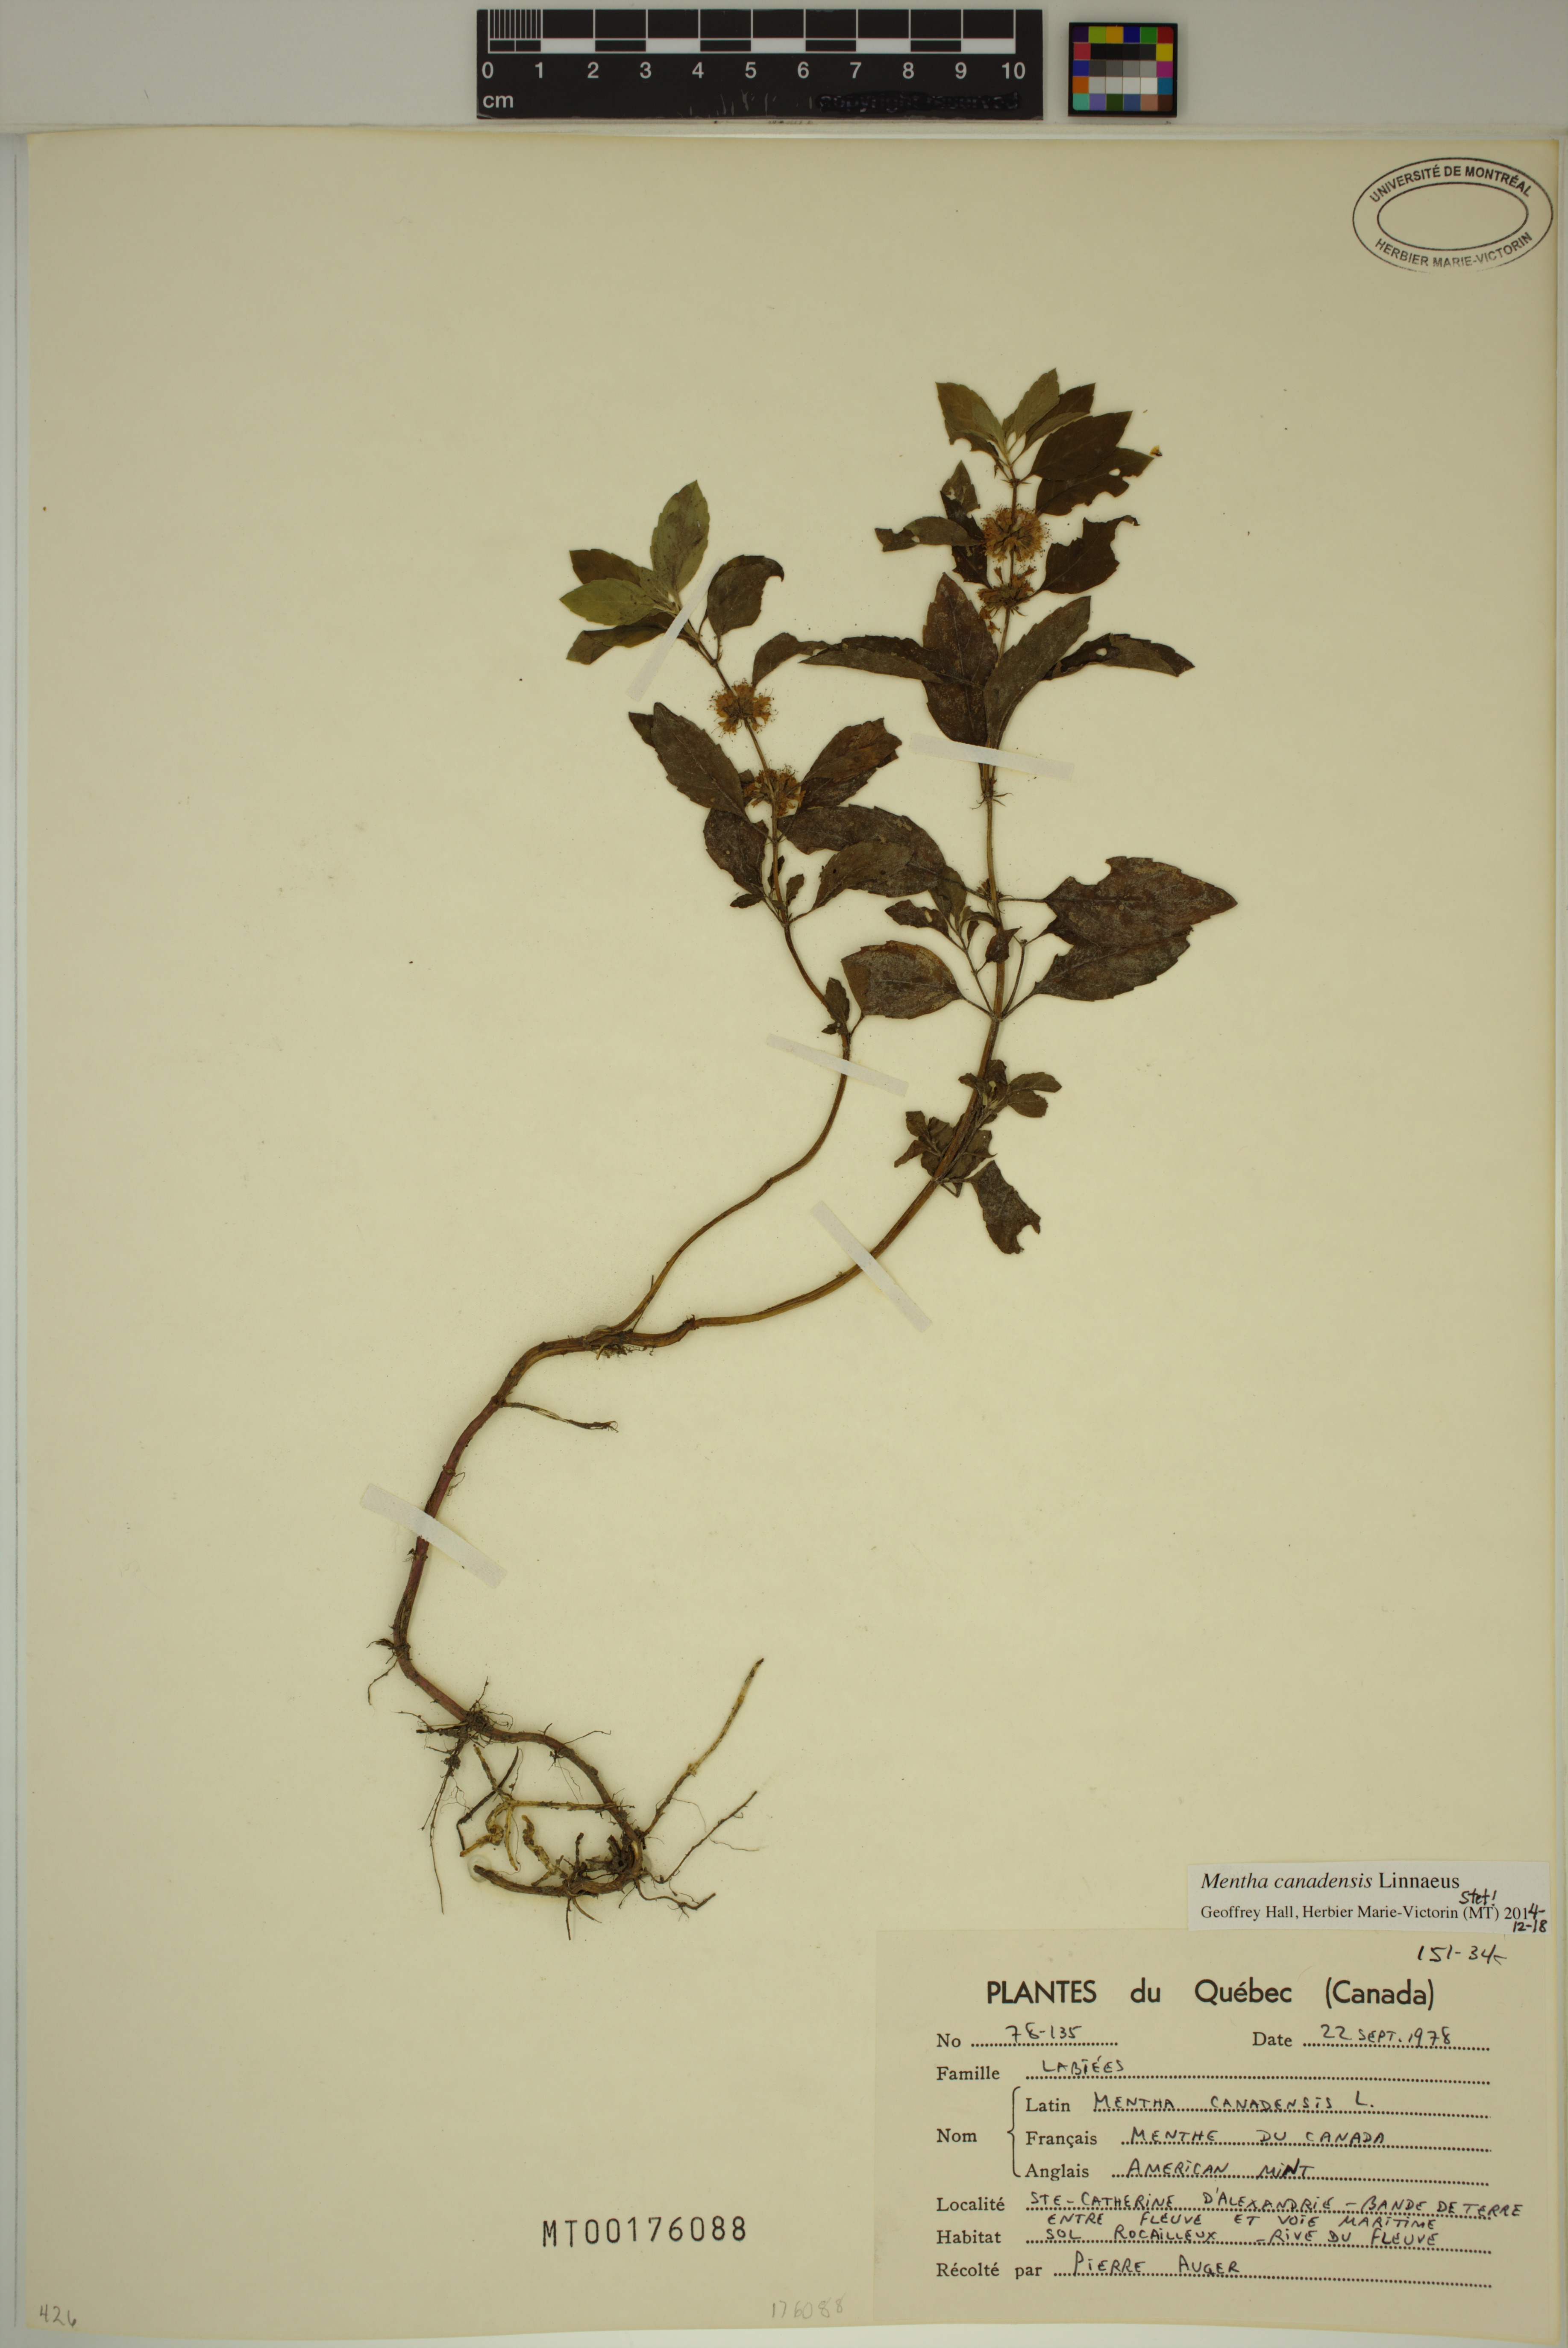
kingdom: Plantae
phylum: Tracheophyta
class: Magnoliopsida
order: Lamiales
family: Lamiaceae
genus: Mentha
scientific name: Mentha canadensis
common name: American corn mint
